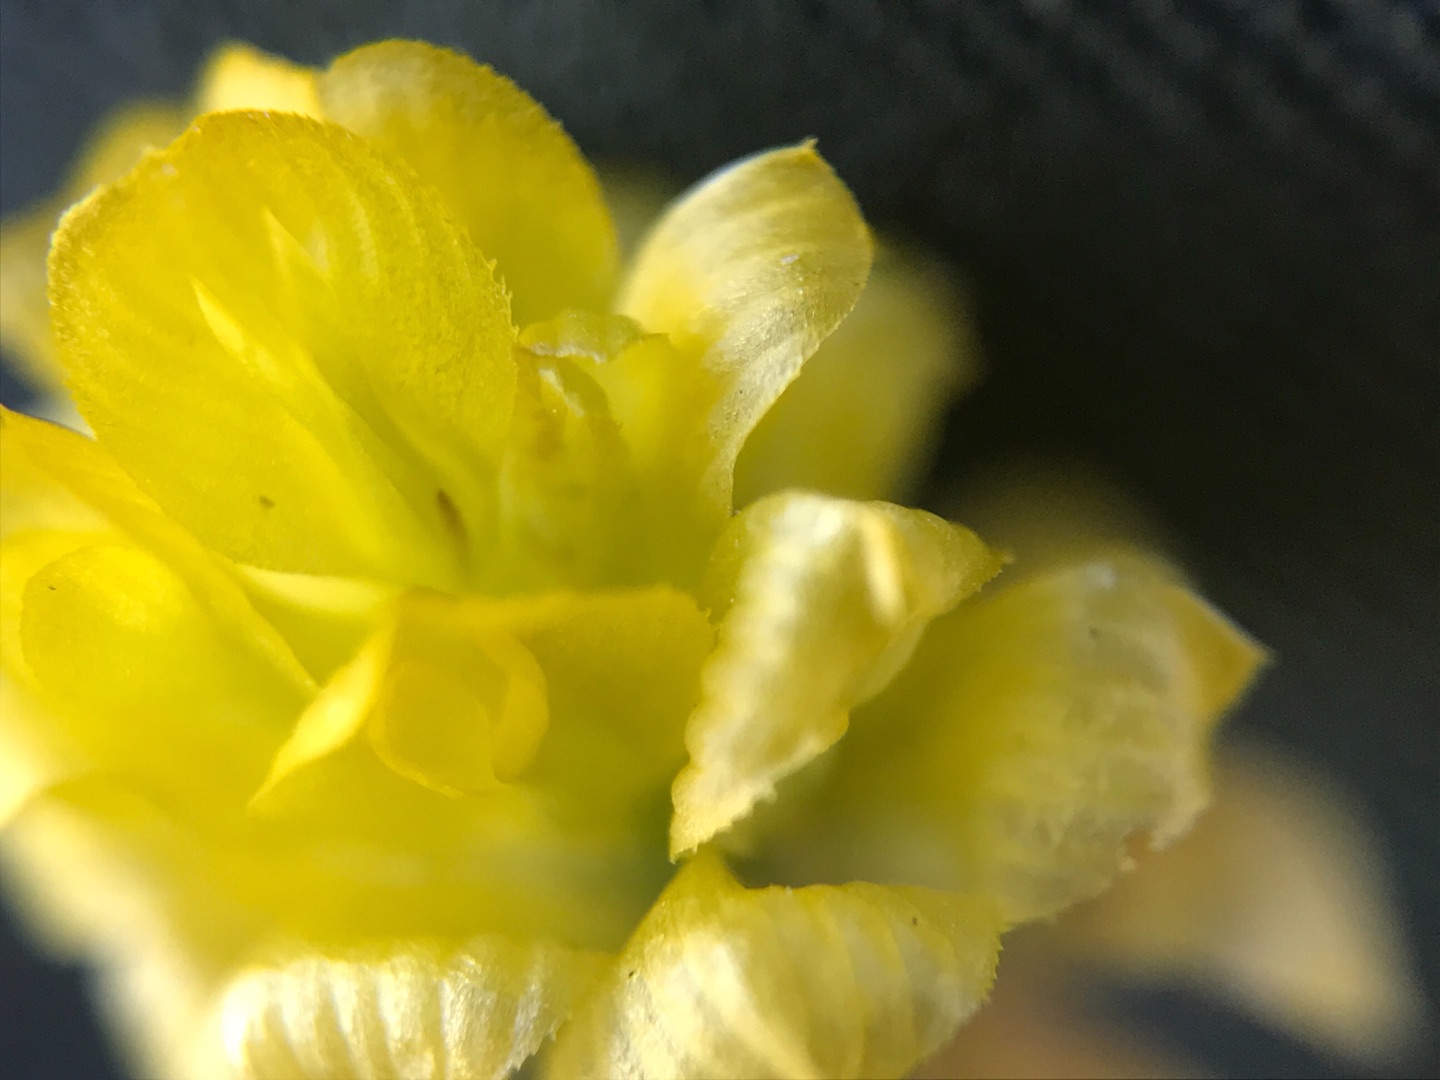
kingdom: Plantae
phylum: Tracheophyta
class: Magnoliopsida
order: Fabales
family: Fabaceae
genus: Trifolium
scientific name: Trifolium campestre
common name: Gul kløver
